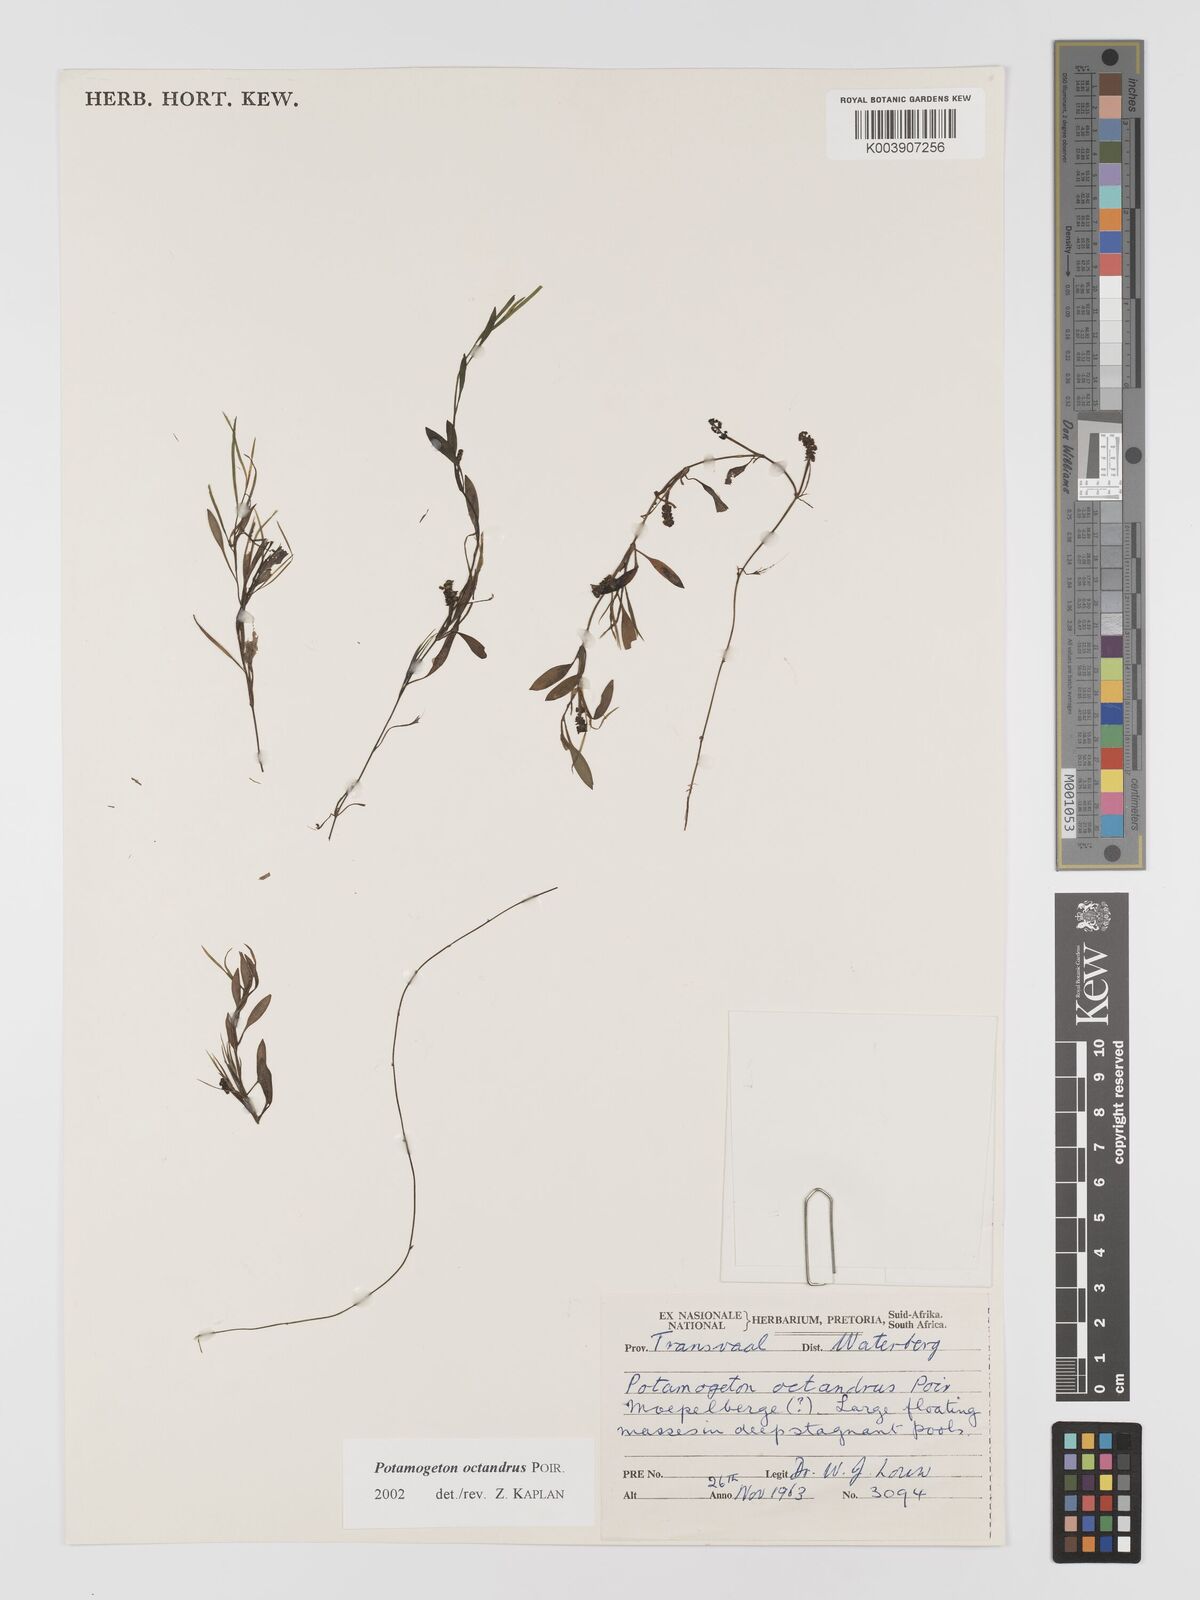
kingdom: Plantae
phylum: Tracheophyta
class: Liliopsida
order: Alismatales
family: Potamogetonaceae
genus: Potamogeton
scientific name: Potamogeton octandrus
